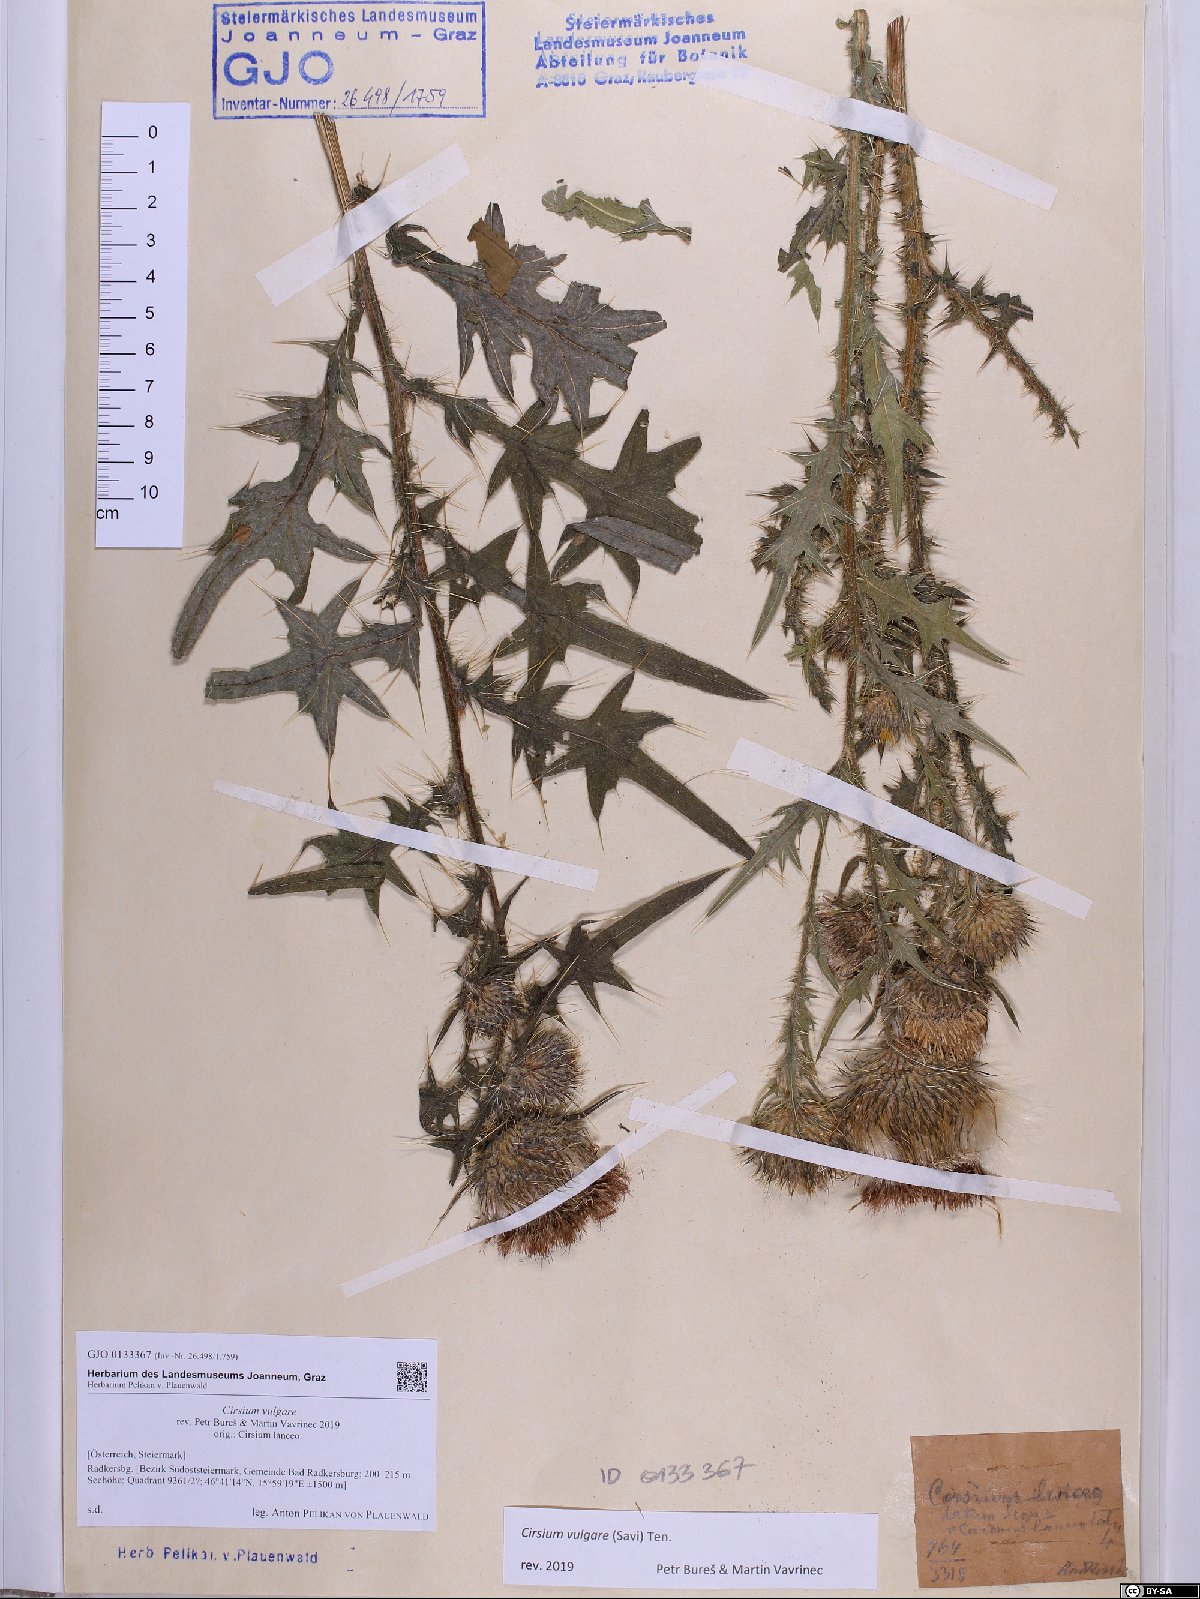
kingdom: Plantae
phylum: Tracheophyta
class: Magnoliopsida
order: Asterales
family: Asteraceae
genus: Cirsium
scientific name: Cirsium vulgare
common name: Bull thistle
